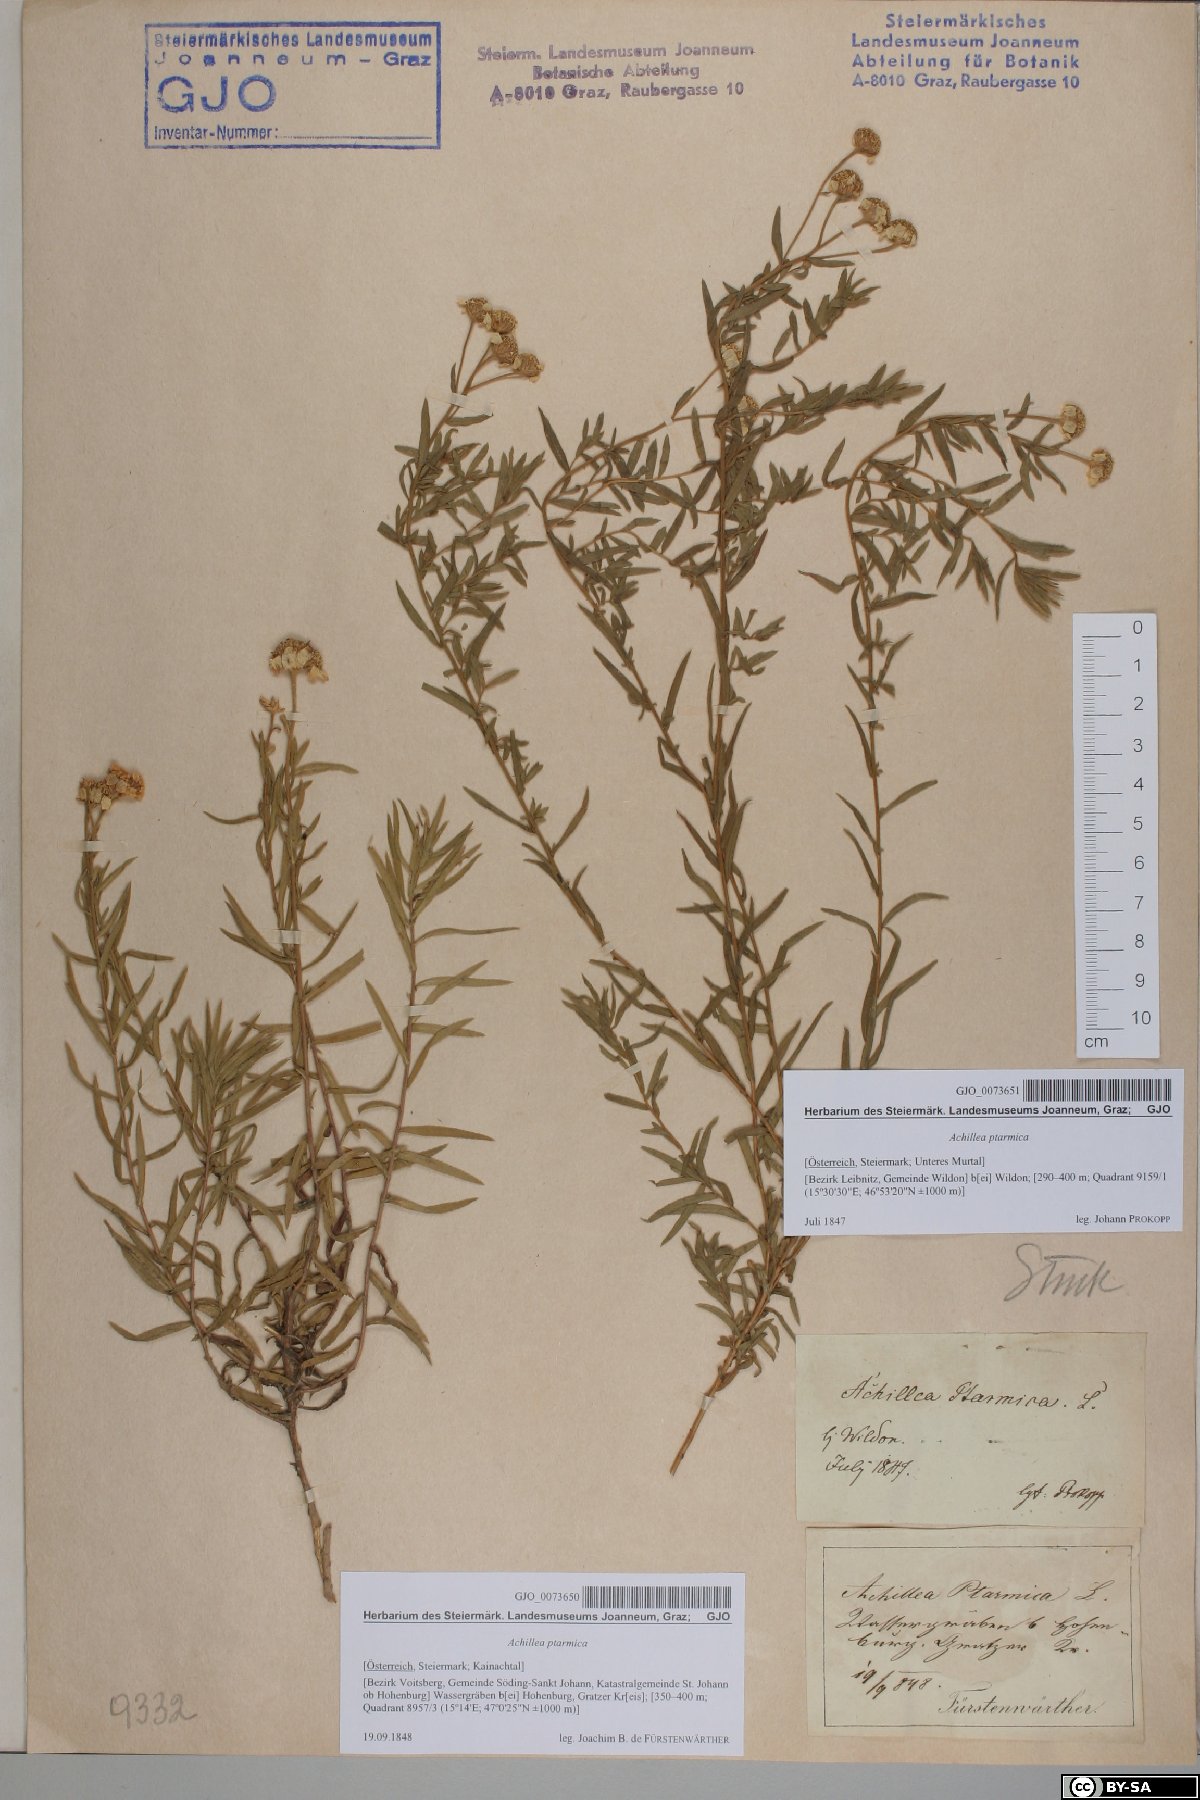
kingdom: Plantae
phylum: Tracheophyta
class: Magnoliopsida
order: Asterales
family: Asteraceae
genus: Achillea
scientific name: Achillea ptarmica
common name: Sneezeweed
